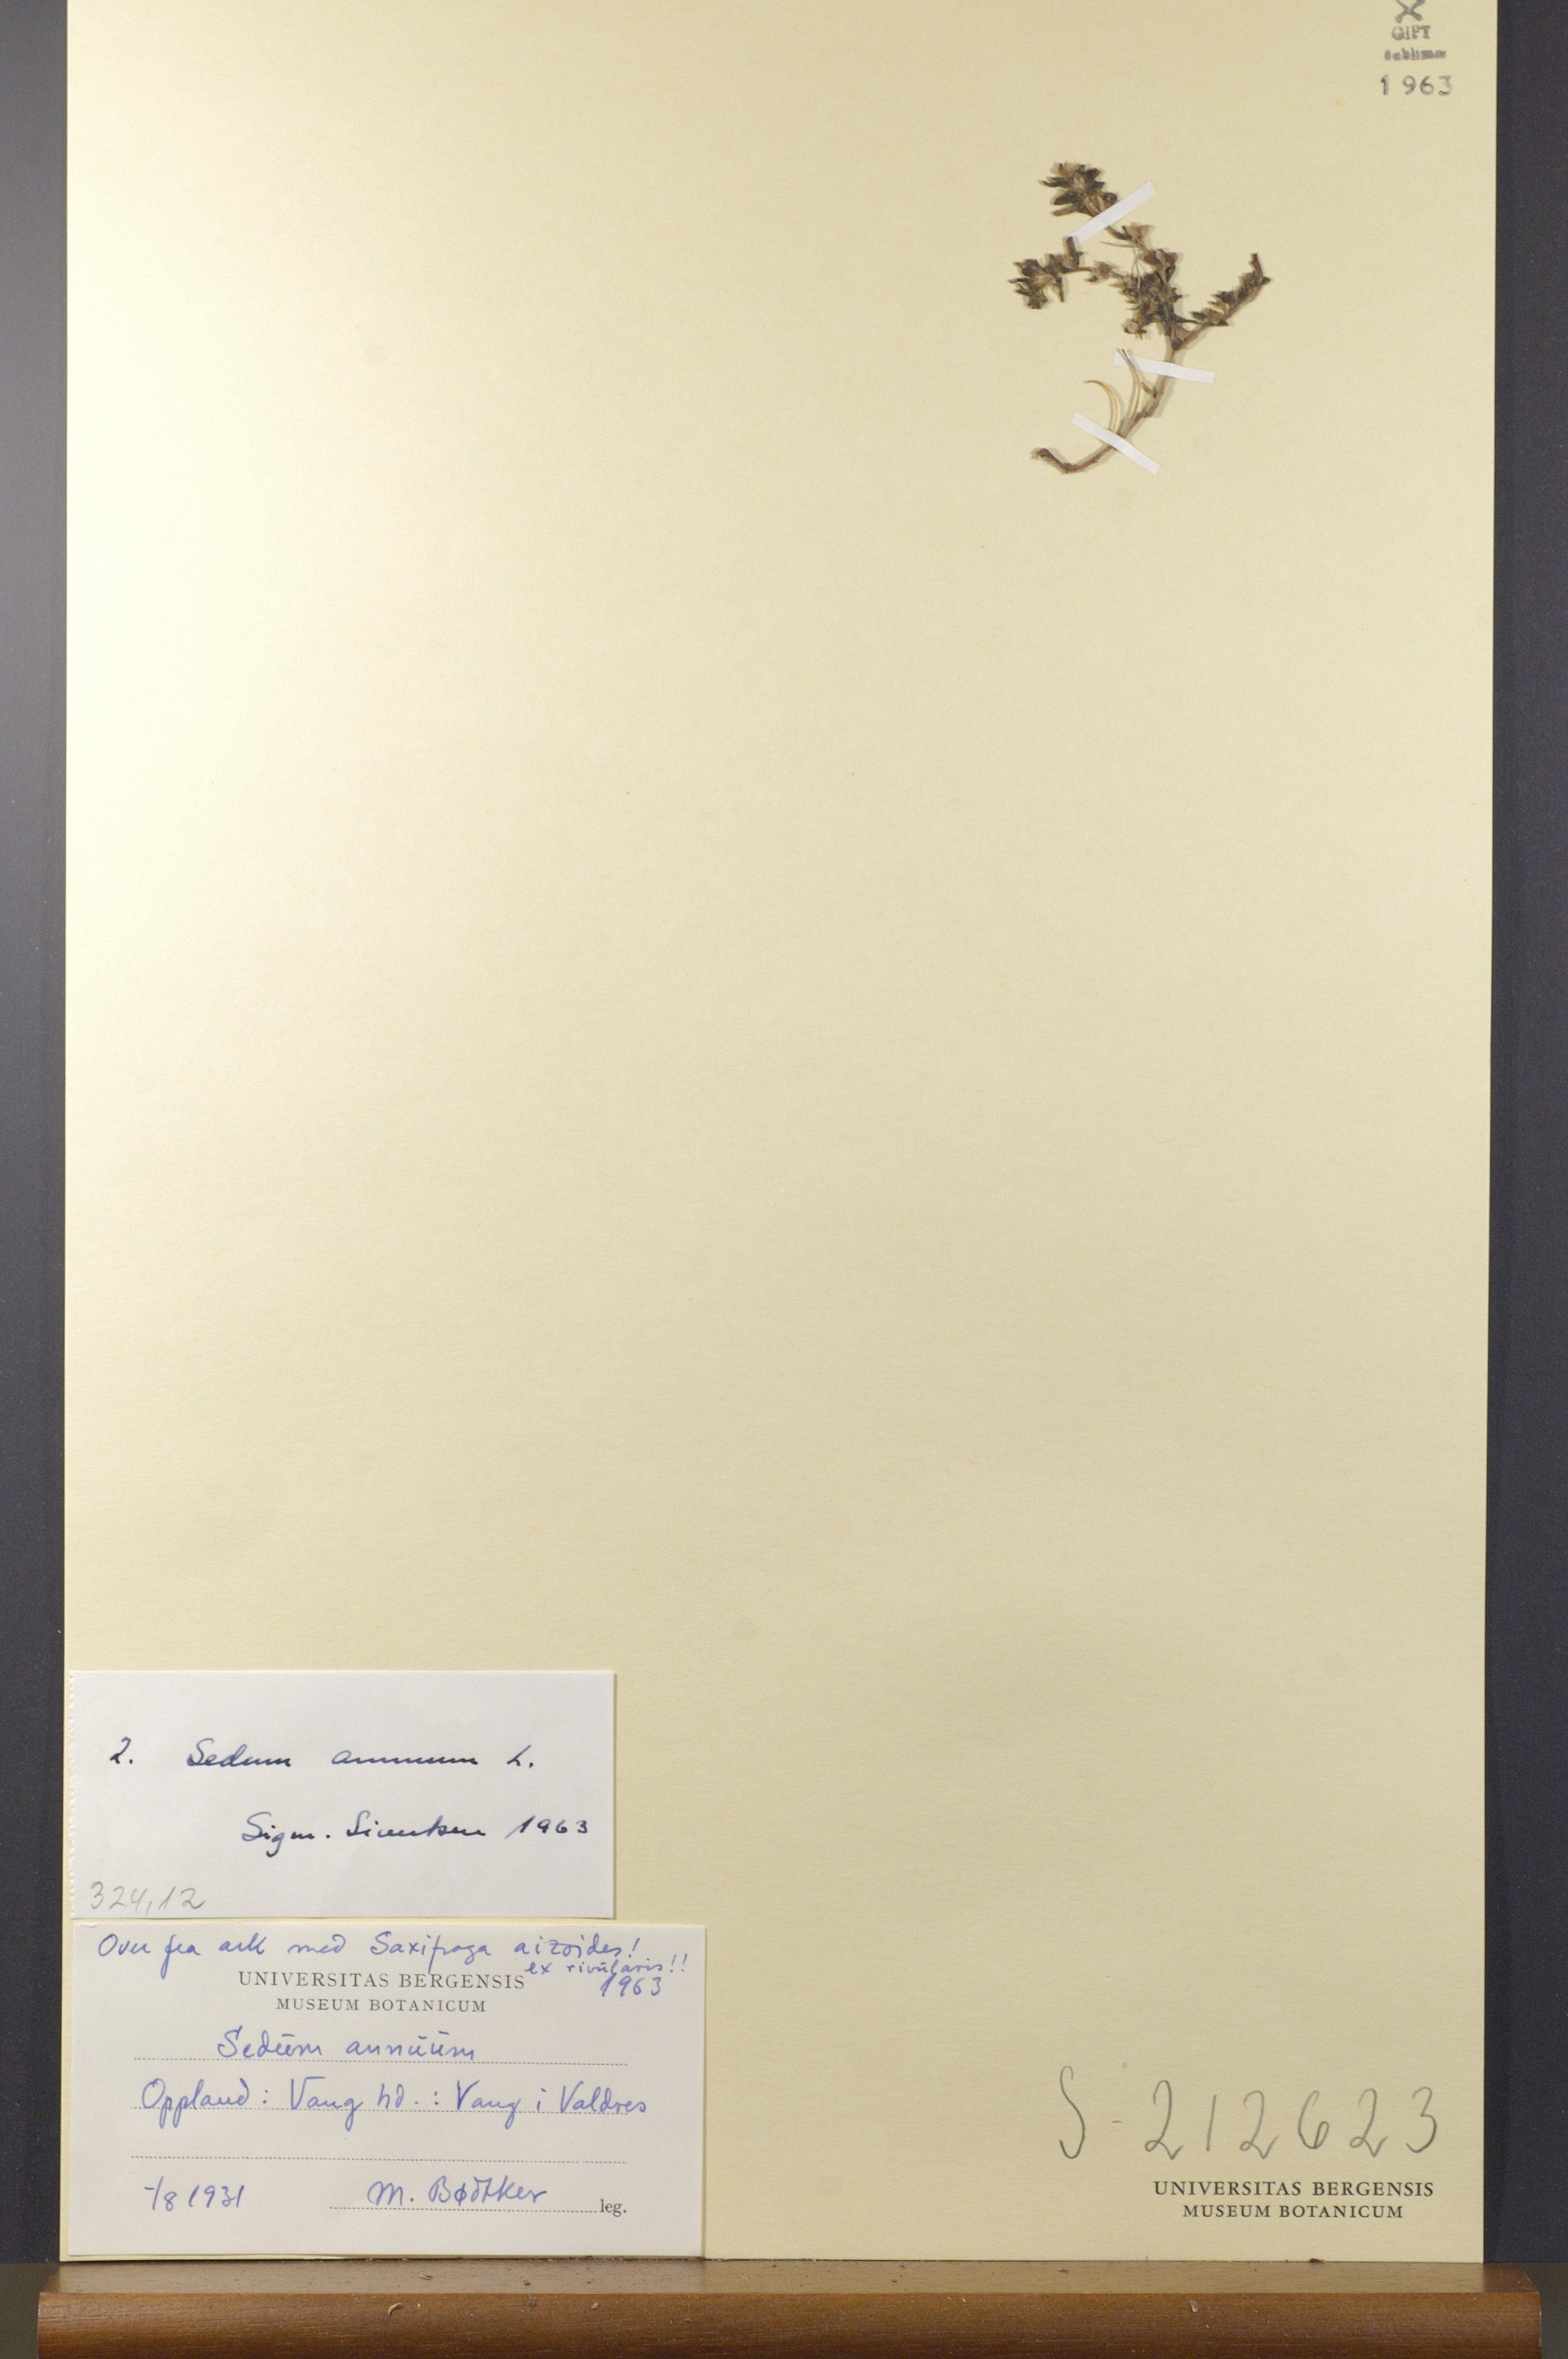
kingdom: Plantae
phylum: Tracheophyta
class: Magnoliopsida
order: Saxifragales
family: Crassulaceae
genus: Sedum
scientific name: Sedum annuum
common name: Annual stonecrop
